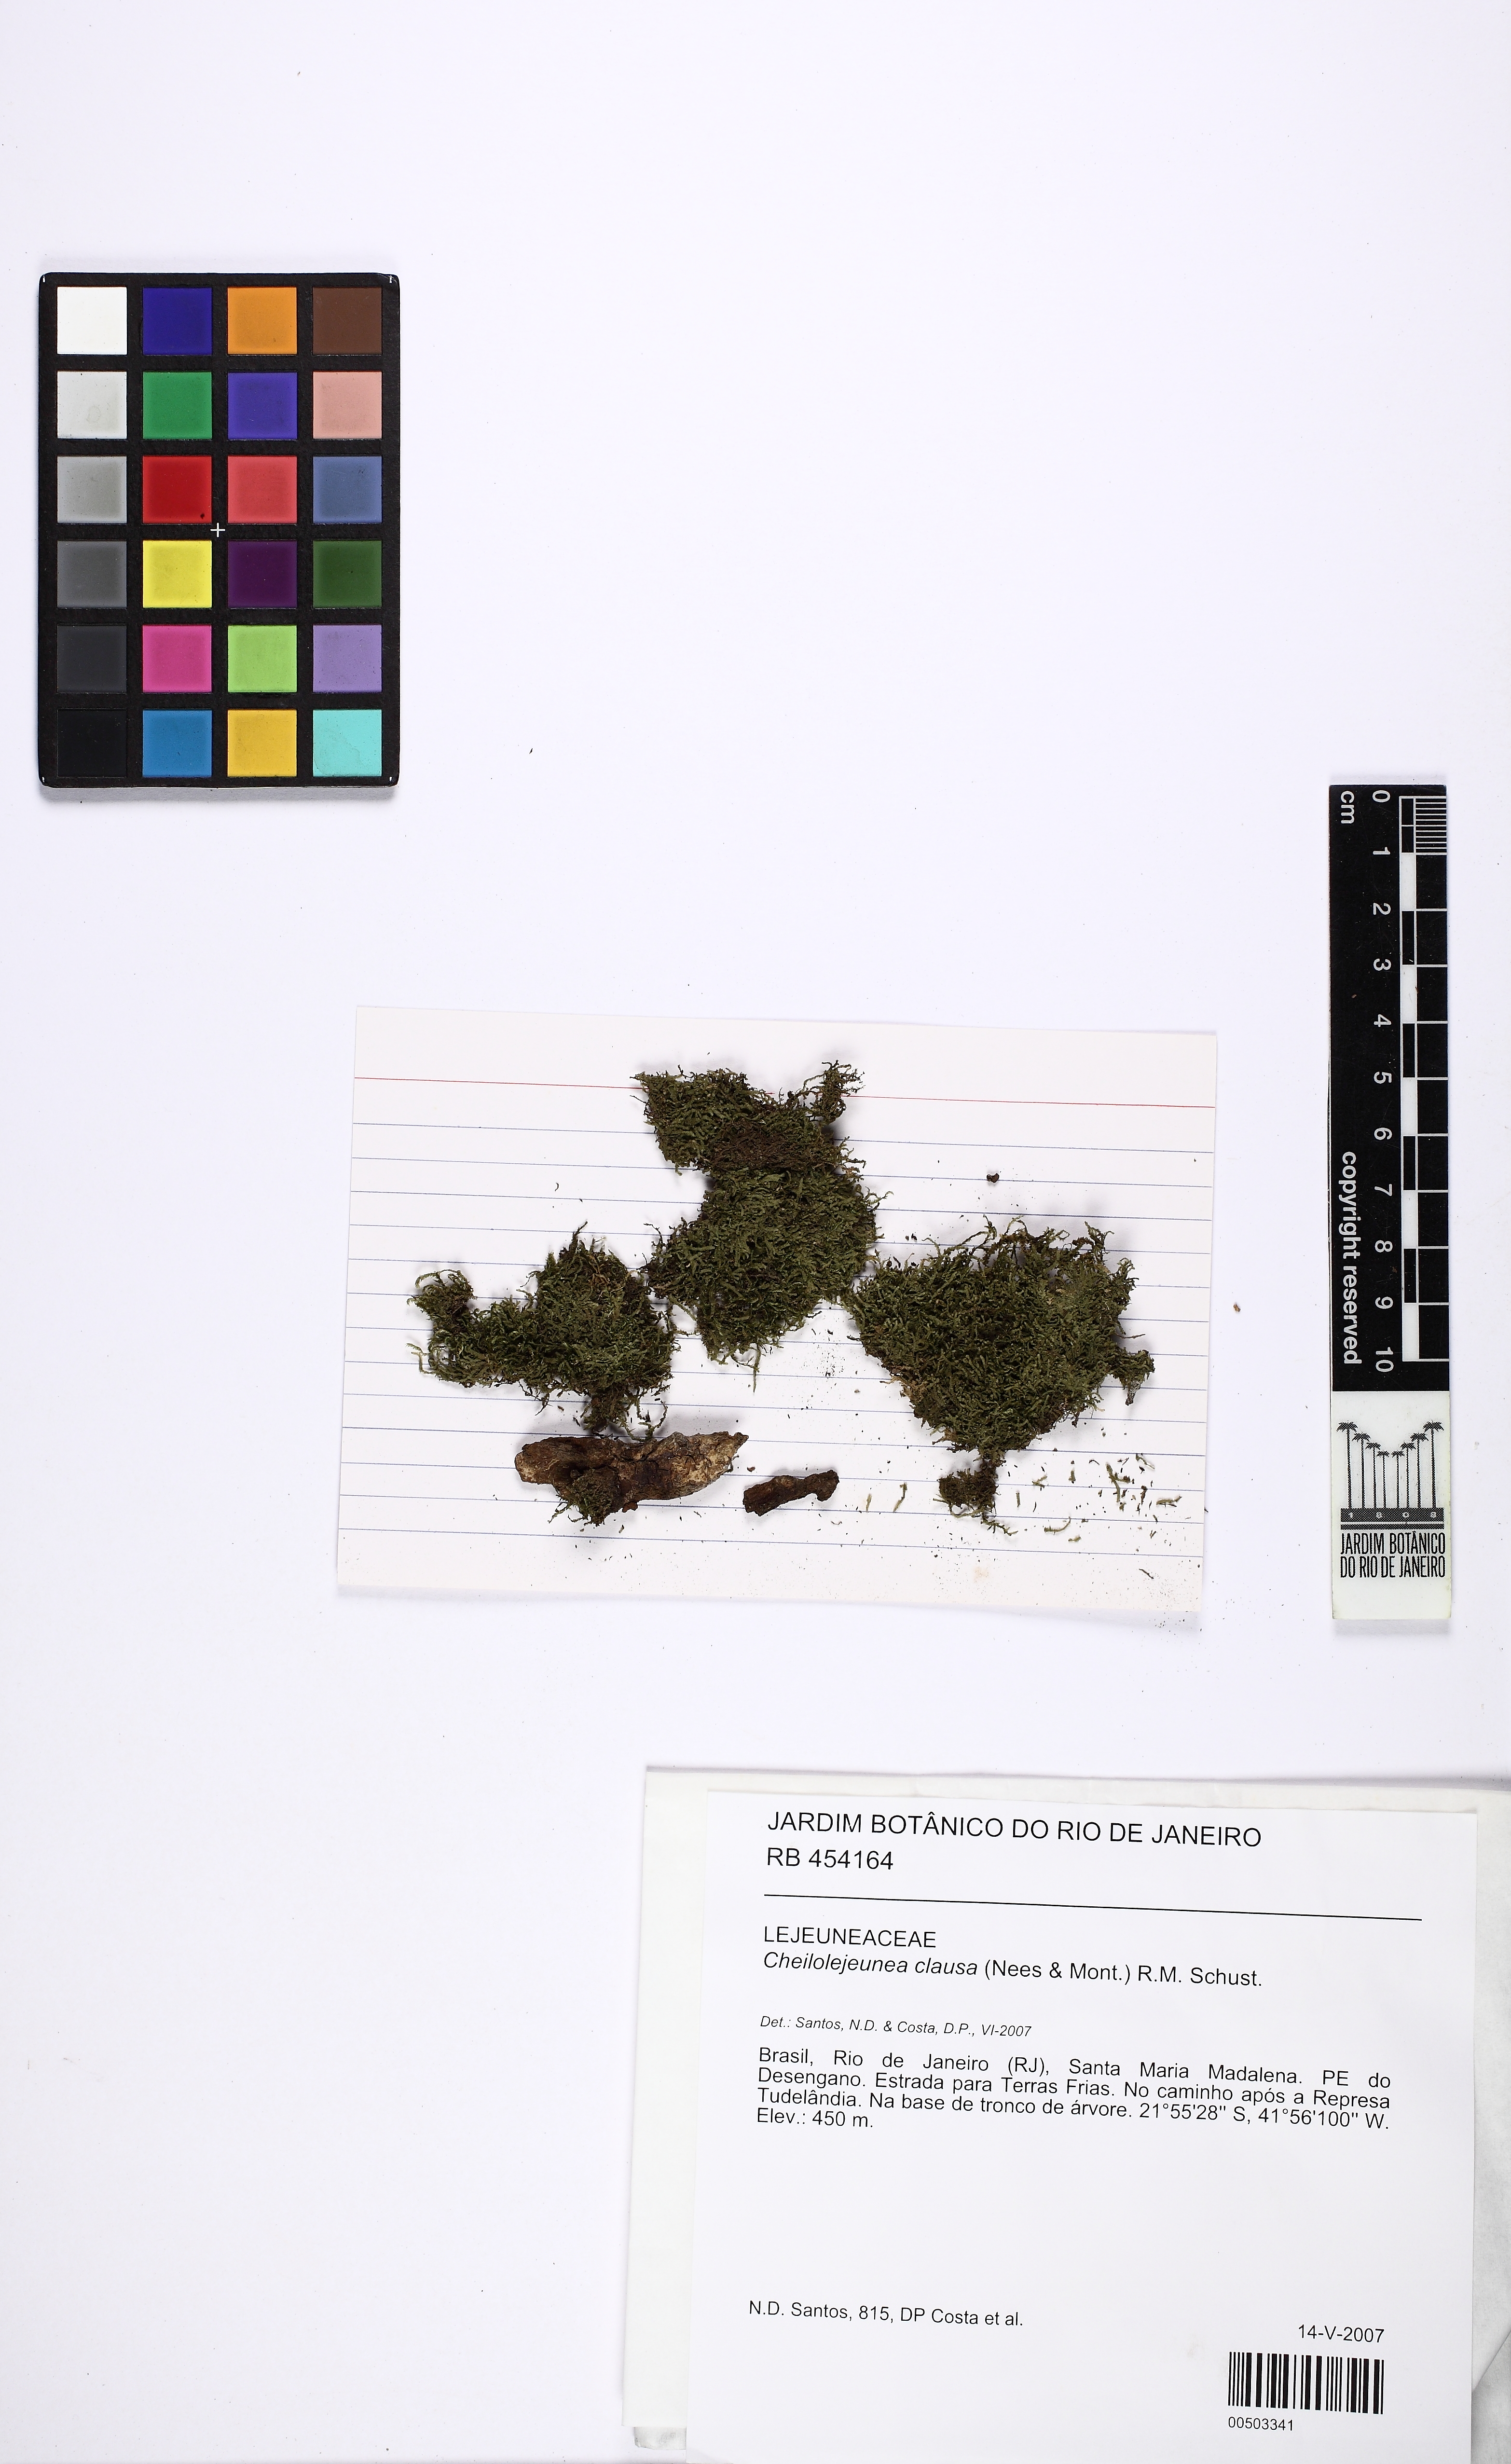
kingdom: Plantae
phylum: Marchantiophyta
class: Jungermanniopsida
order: Porellales
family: Lejeuneaceae
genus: Cheilolejeunea
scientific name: Cheilolejeunea trifaria
